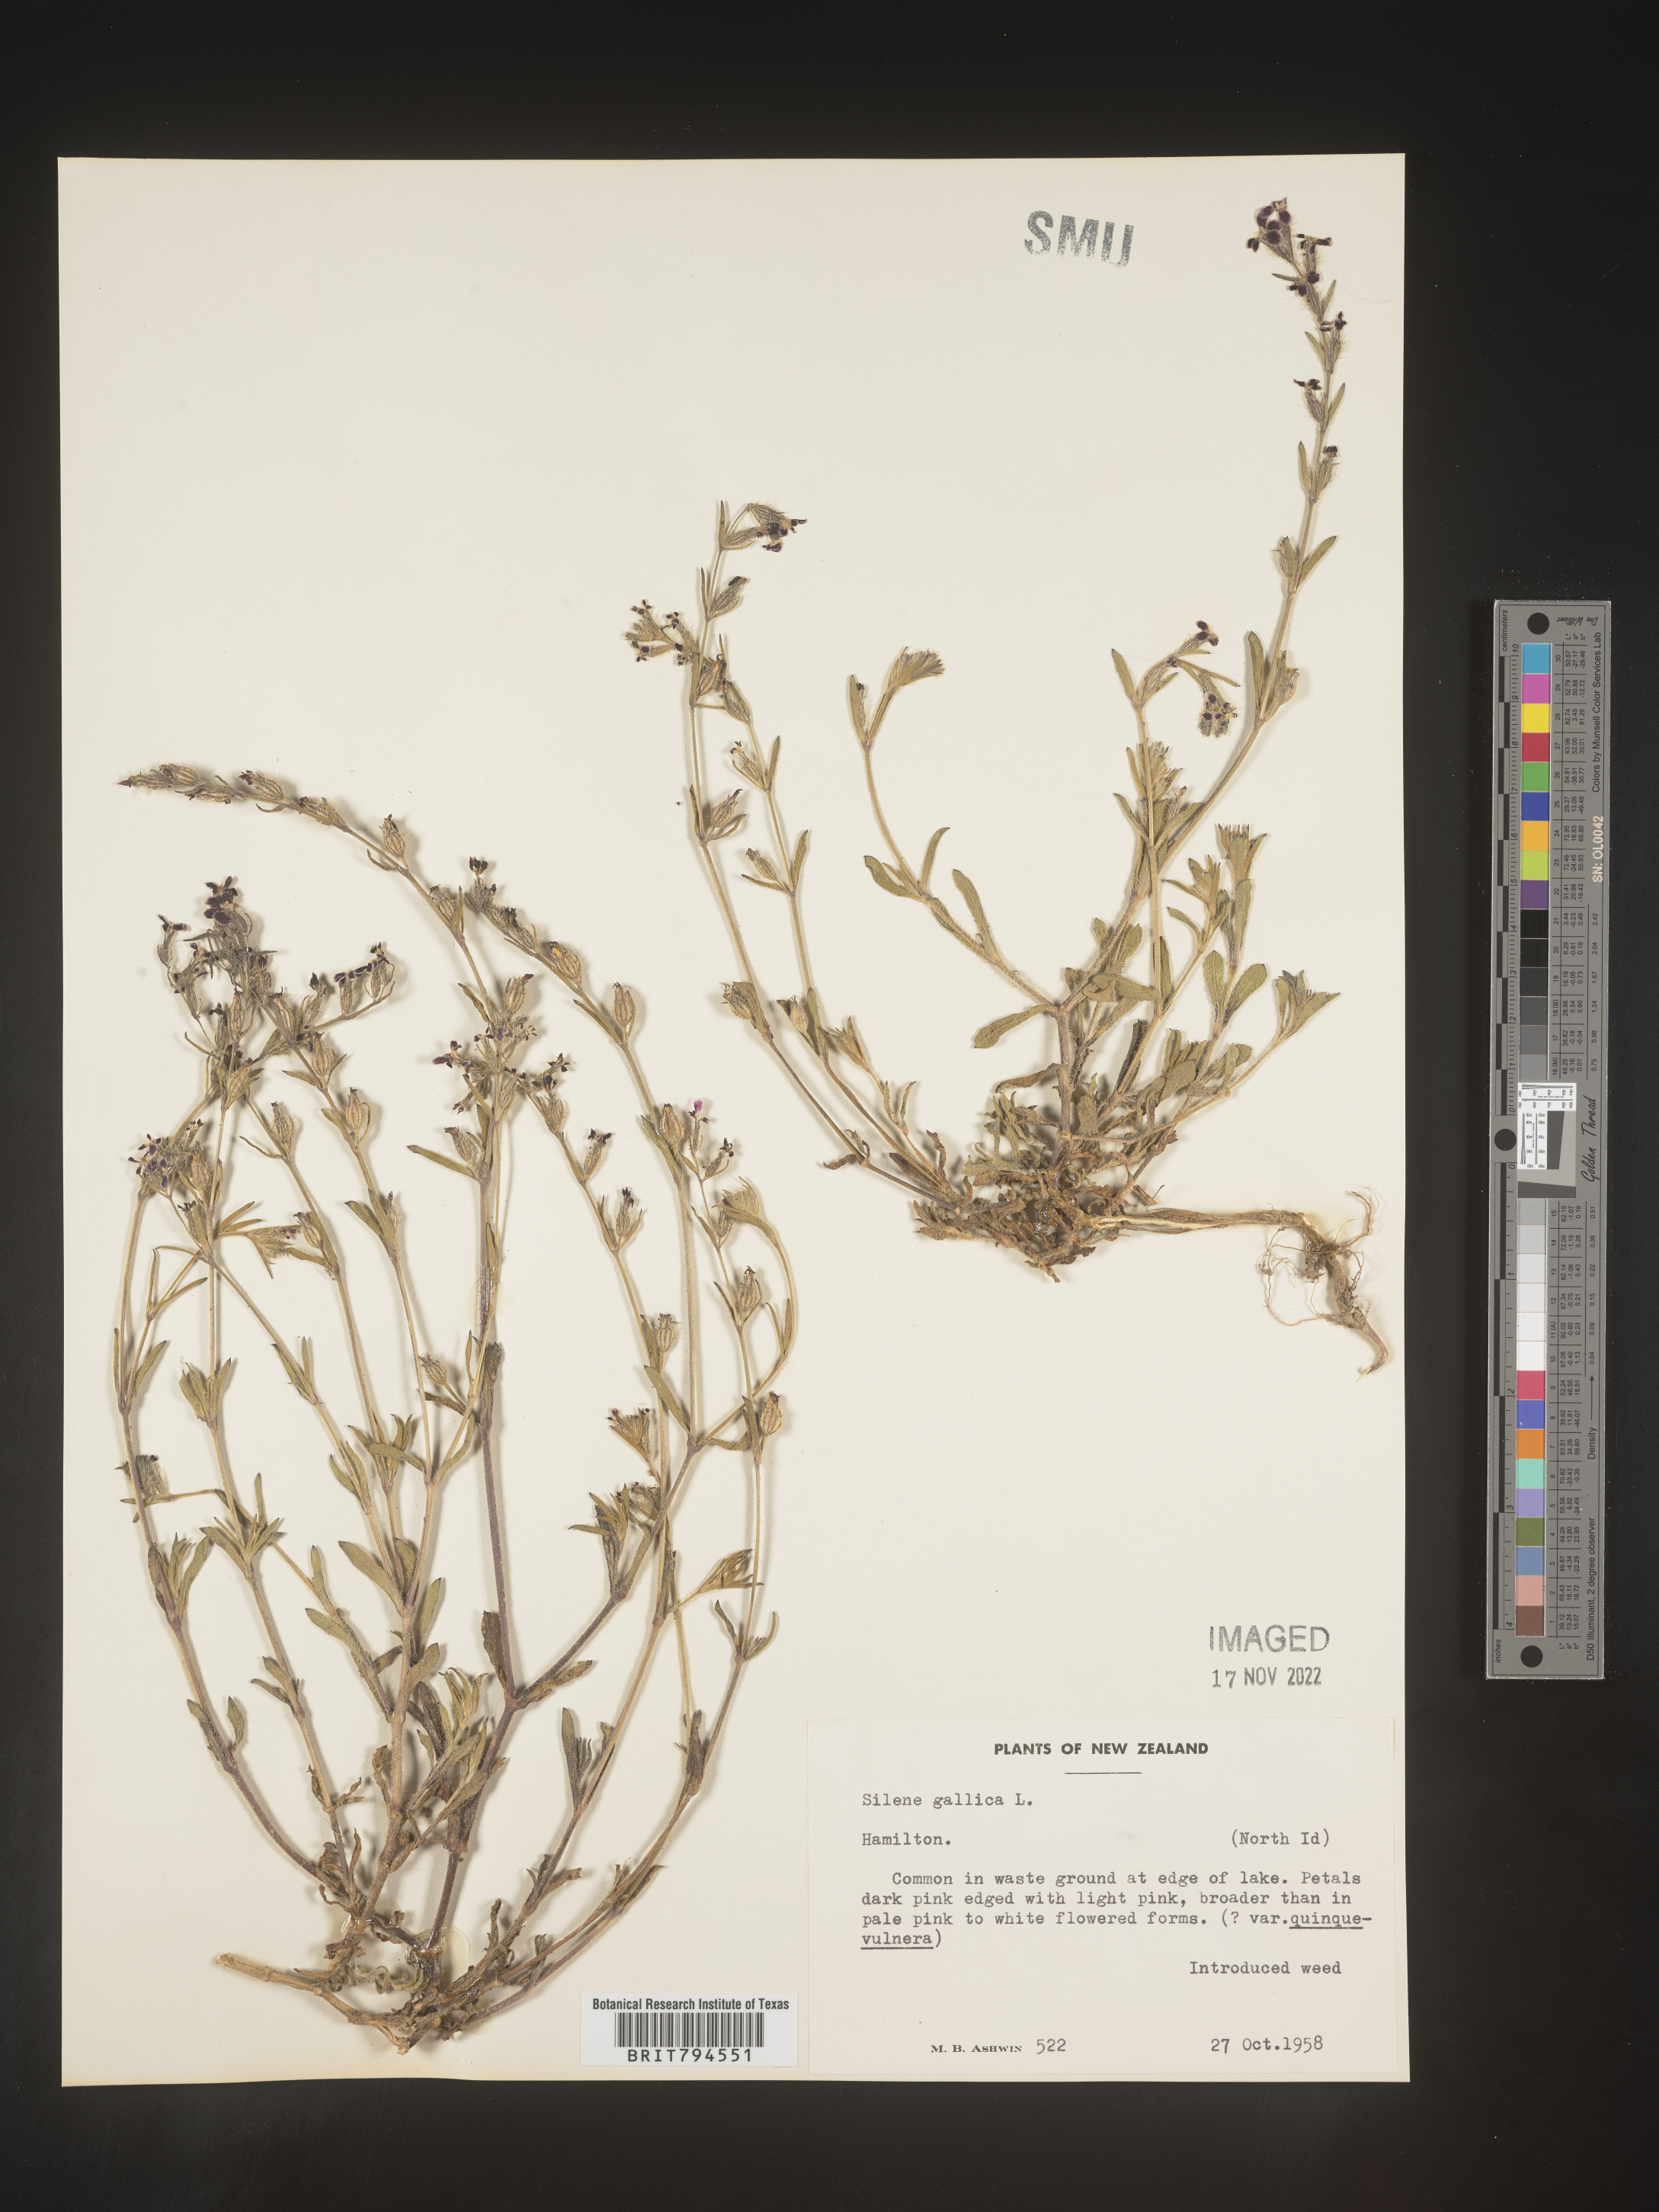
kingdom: Plantae
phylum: Tracheophyta
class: Magnoliopsida
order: Caryophyllales
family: Caryophyllaceae
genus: Silene
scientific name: Silene gallica
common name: Small-flowered catchfly
